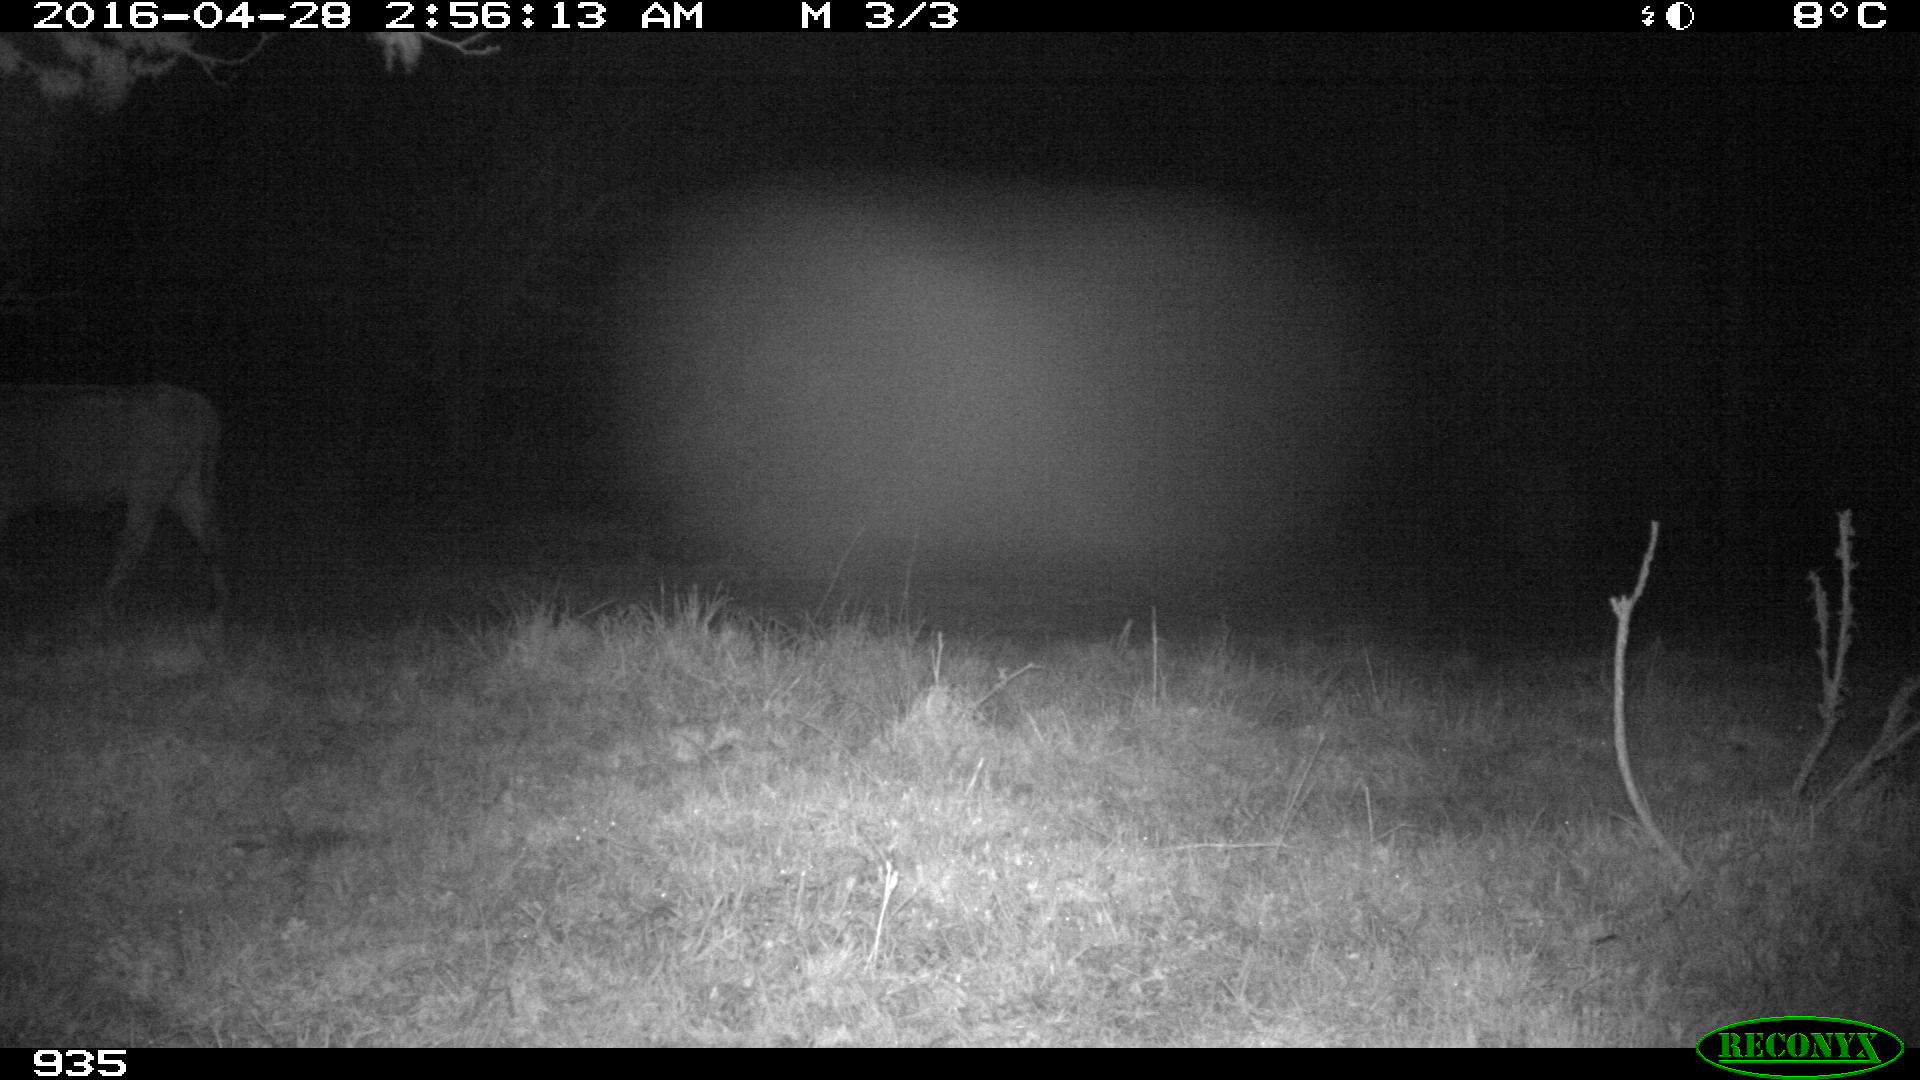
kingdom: Animalia
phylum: Chordata
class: Mammalia
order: Artiodactyla
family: Bovidae
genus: Bos
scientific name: Bos taurus
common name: Domesticated cattle
